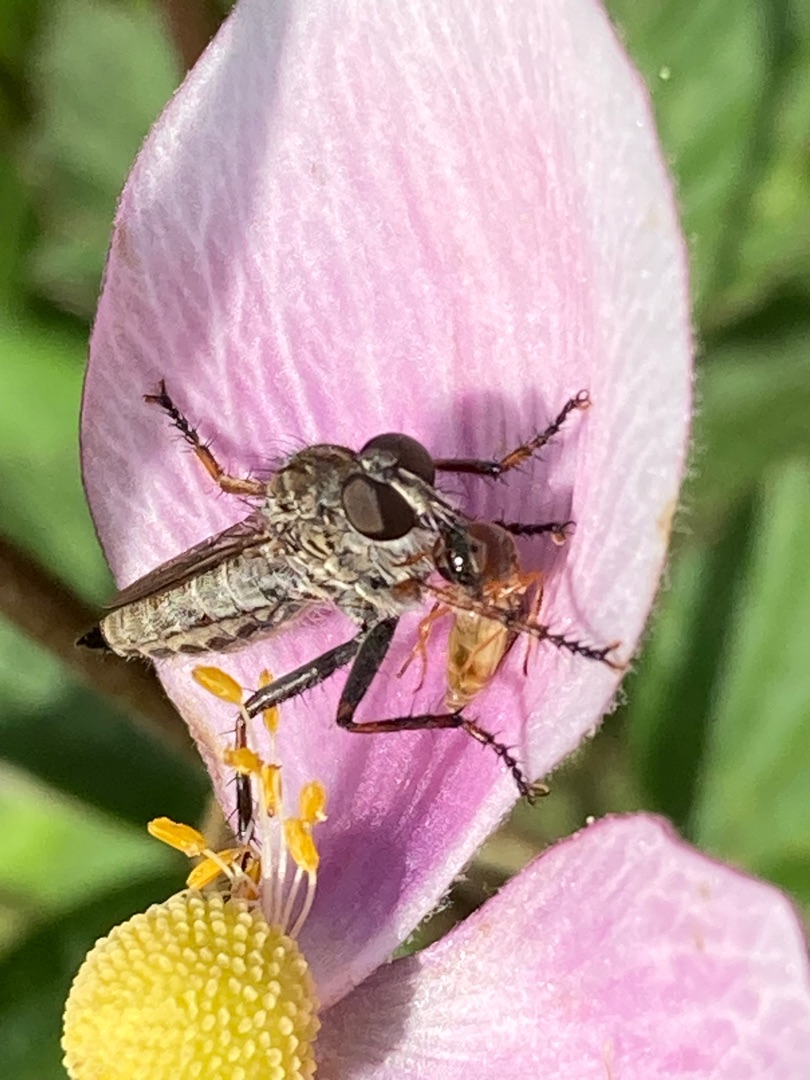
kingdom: Animalia
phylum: Arthropoda
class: Insecta
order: Diptera
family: Asilidae
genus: Machimus
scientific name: Machimus atricapillus
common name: Sort hårrovflue
